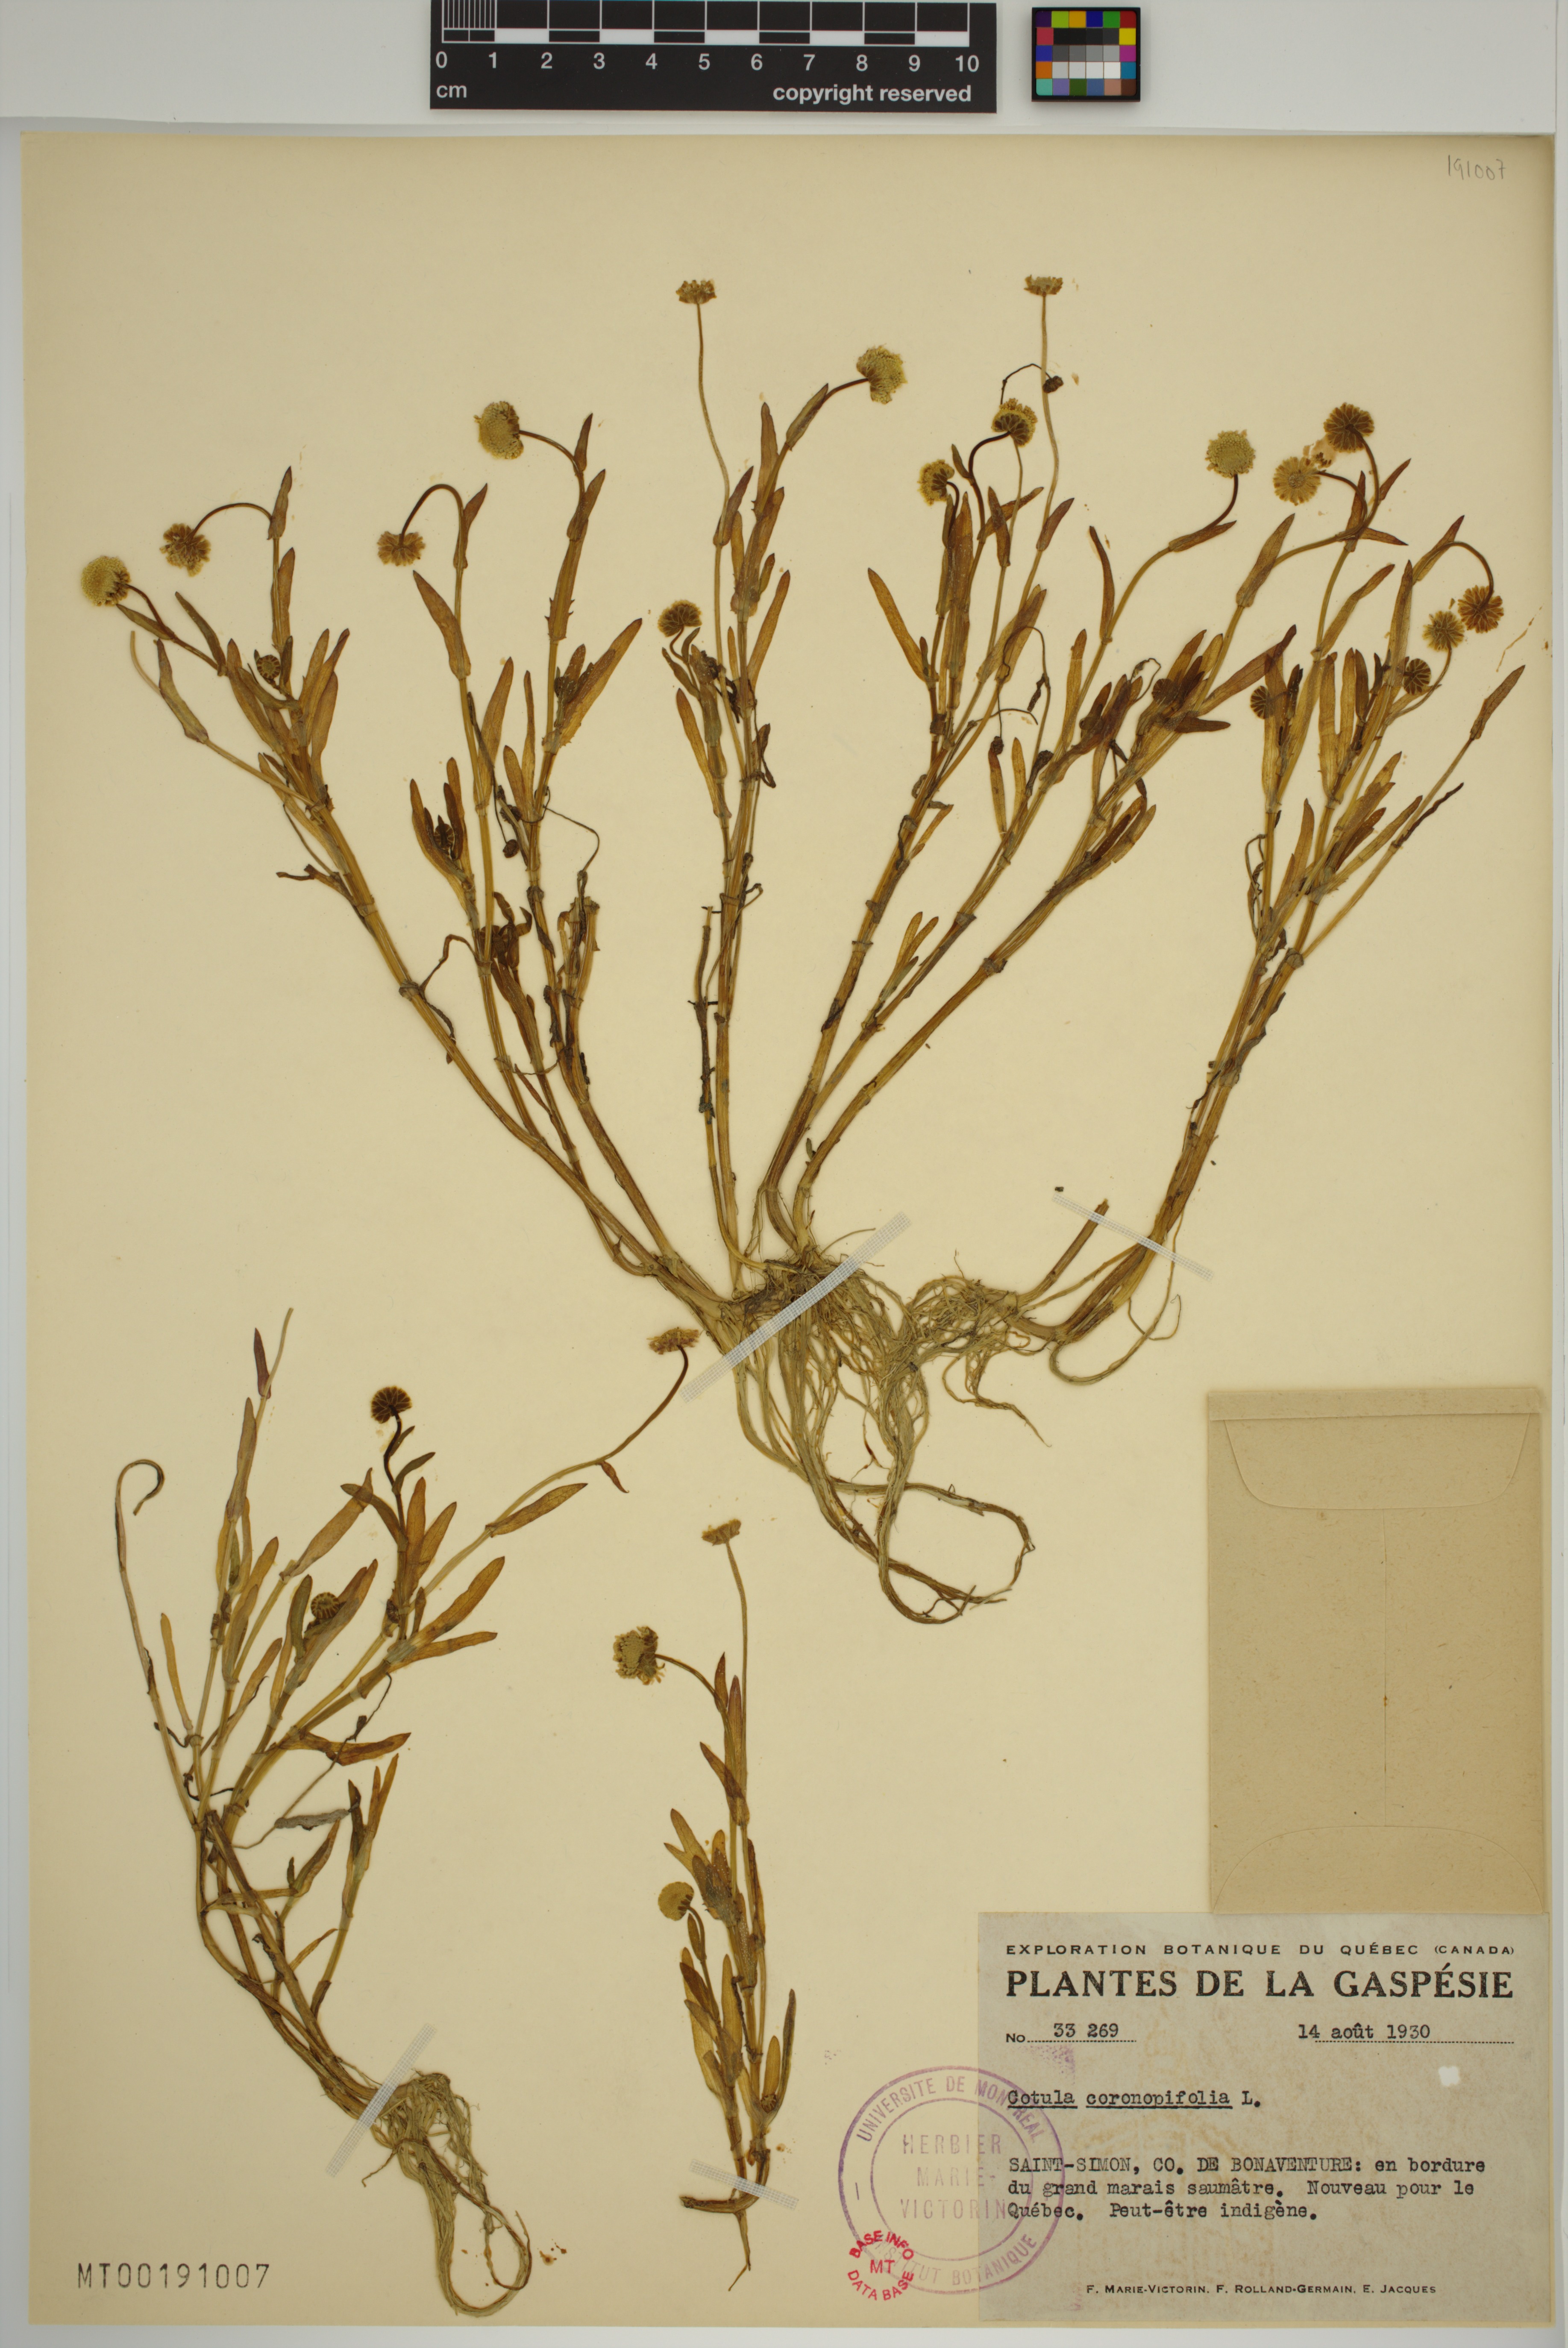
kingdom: Plantae
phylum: Tracheophyta
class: Magnoliopsida
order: Asterales
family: Asteraceae
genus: Cotula
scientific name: Cotula coronopifolia
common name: Buttonweed
